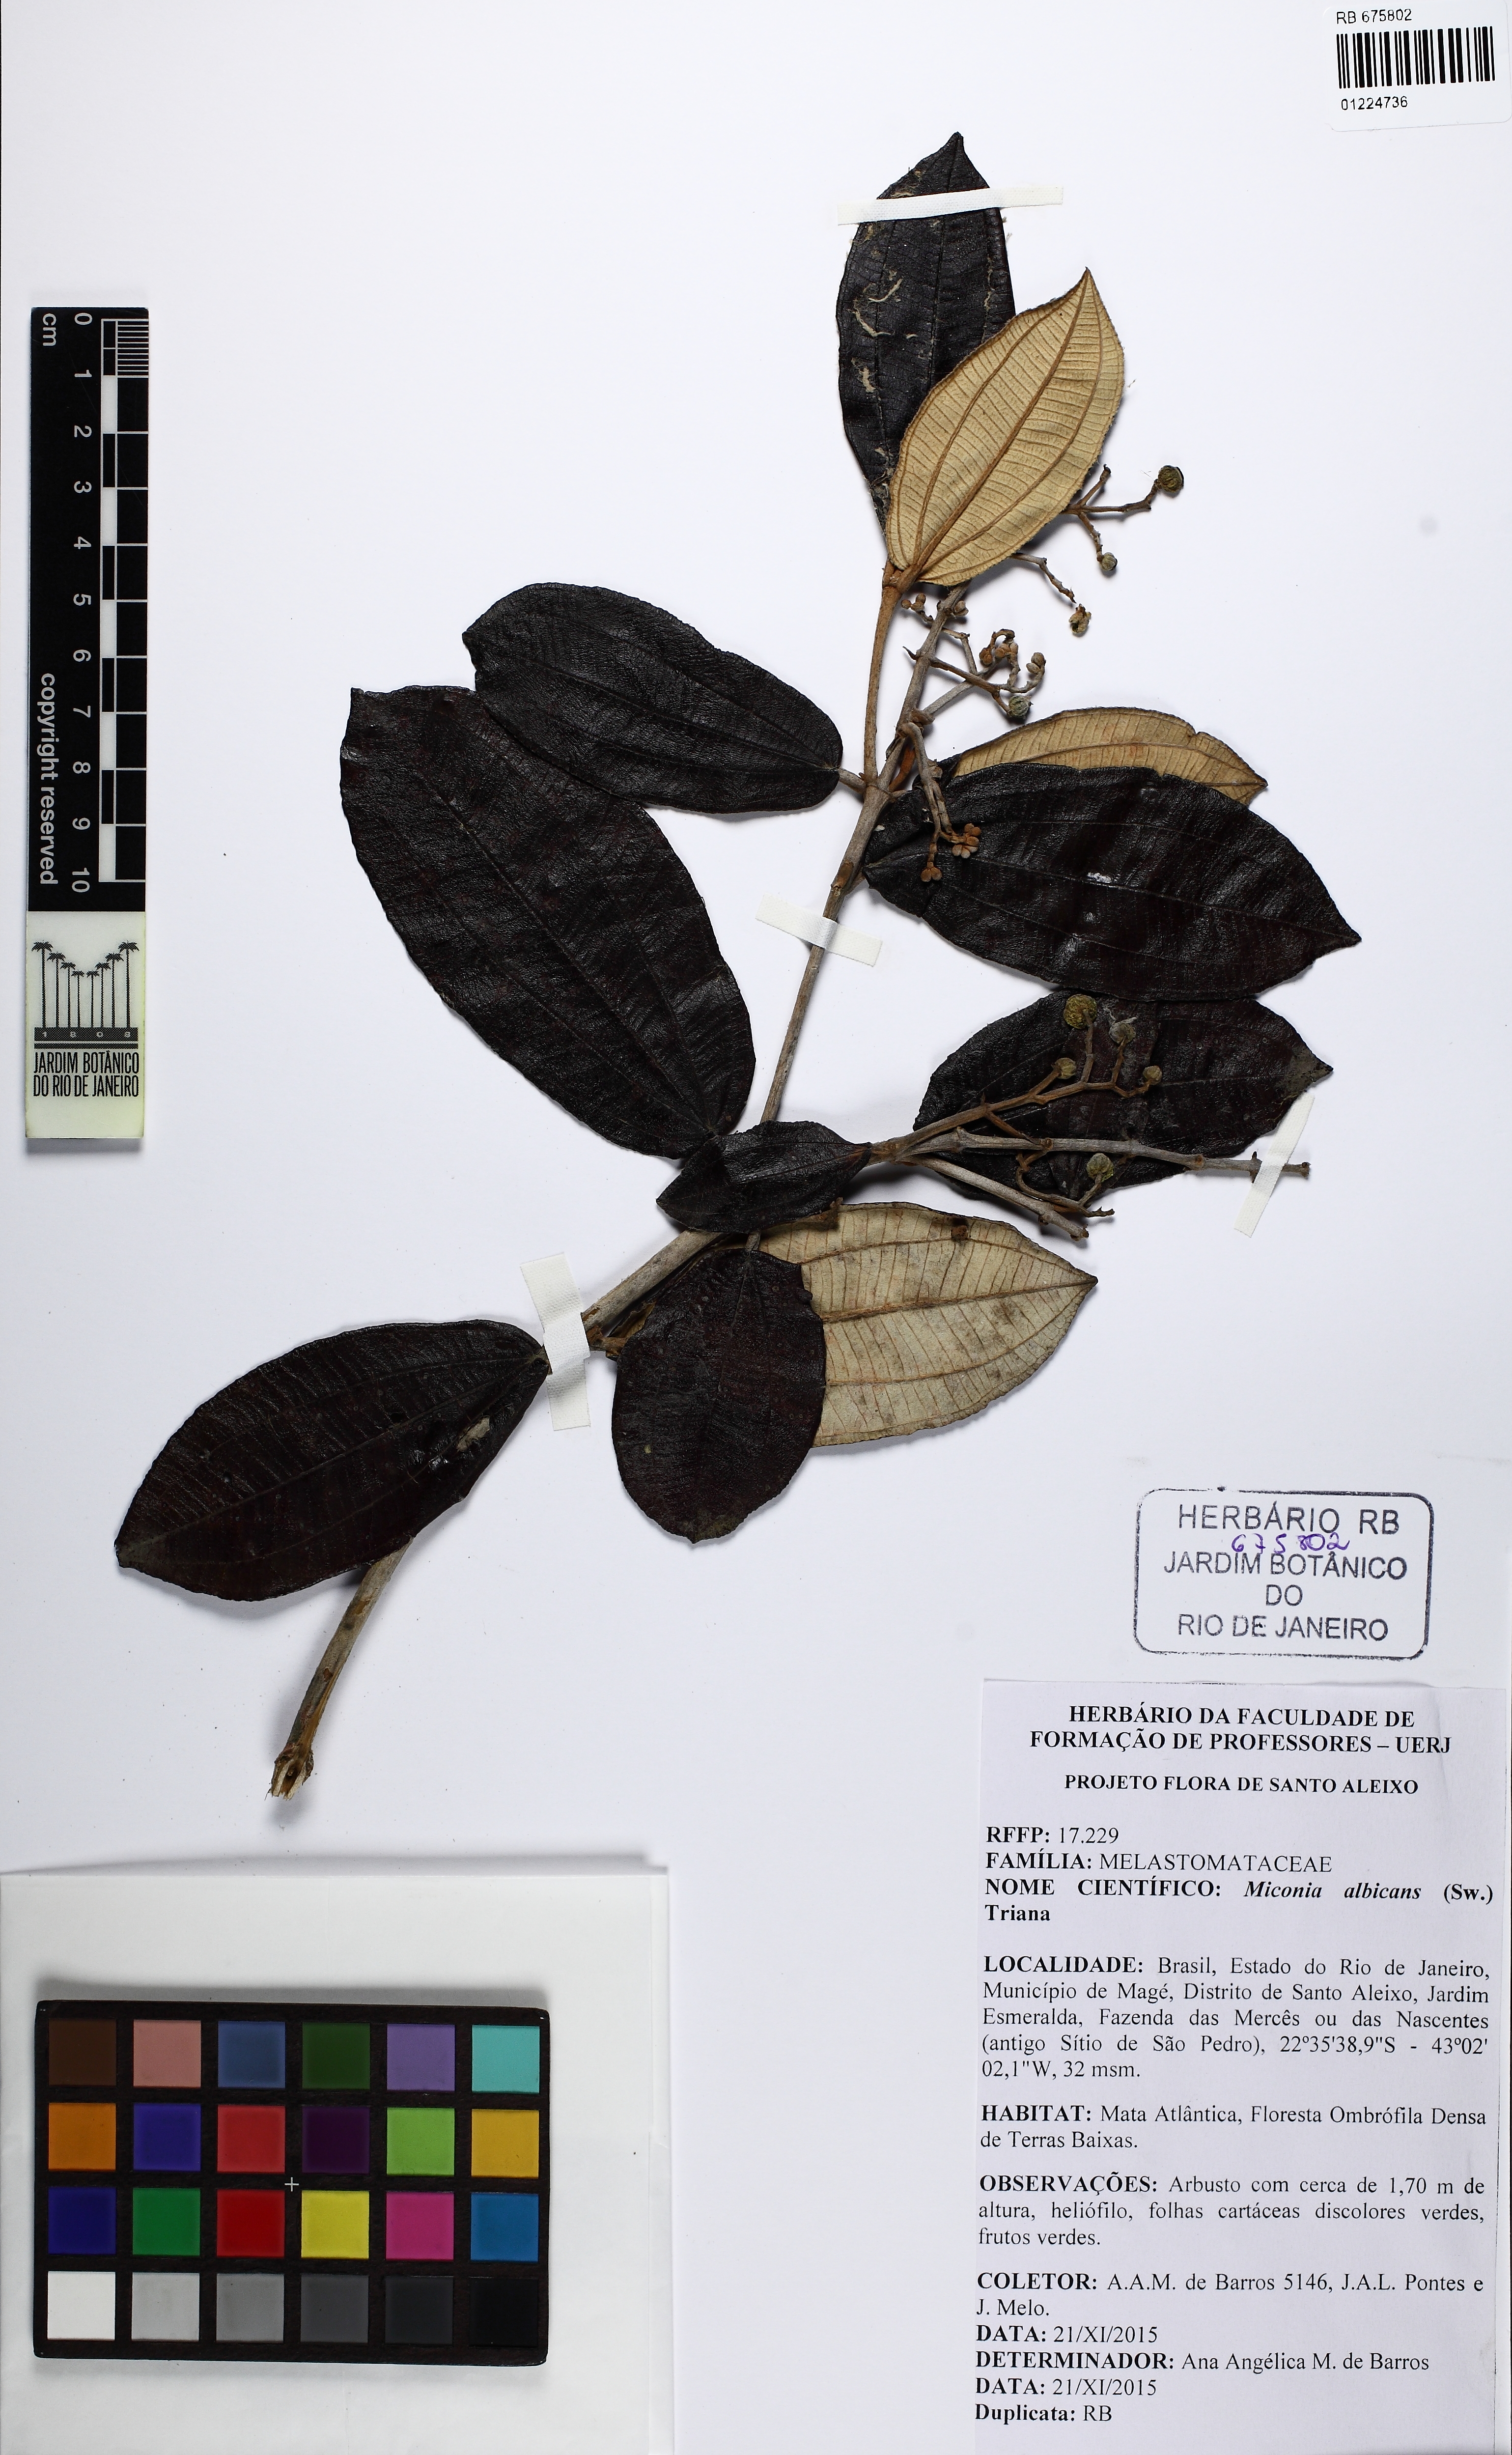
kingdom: Plantae
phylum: Tracheophyta
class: Magnoliopsida
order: Myrtales
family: Melastomataceae
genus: Miconia
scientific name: Miconia albicans
